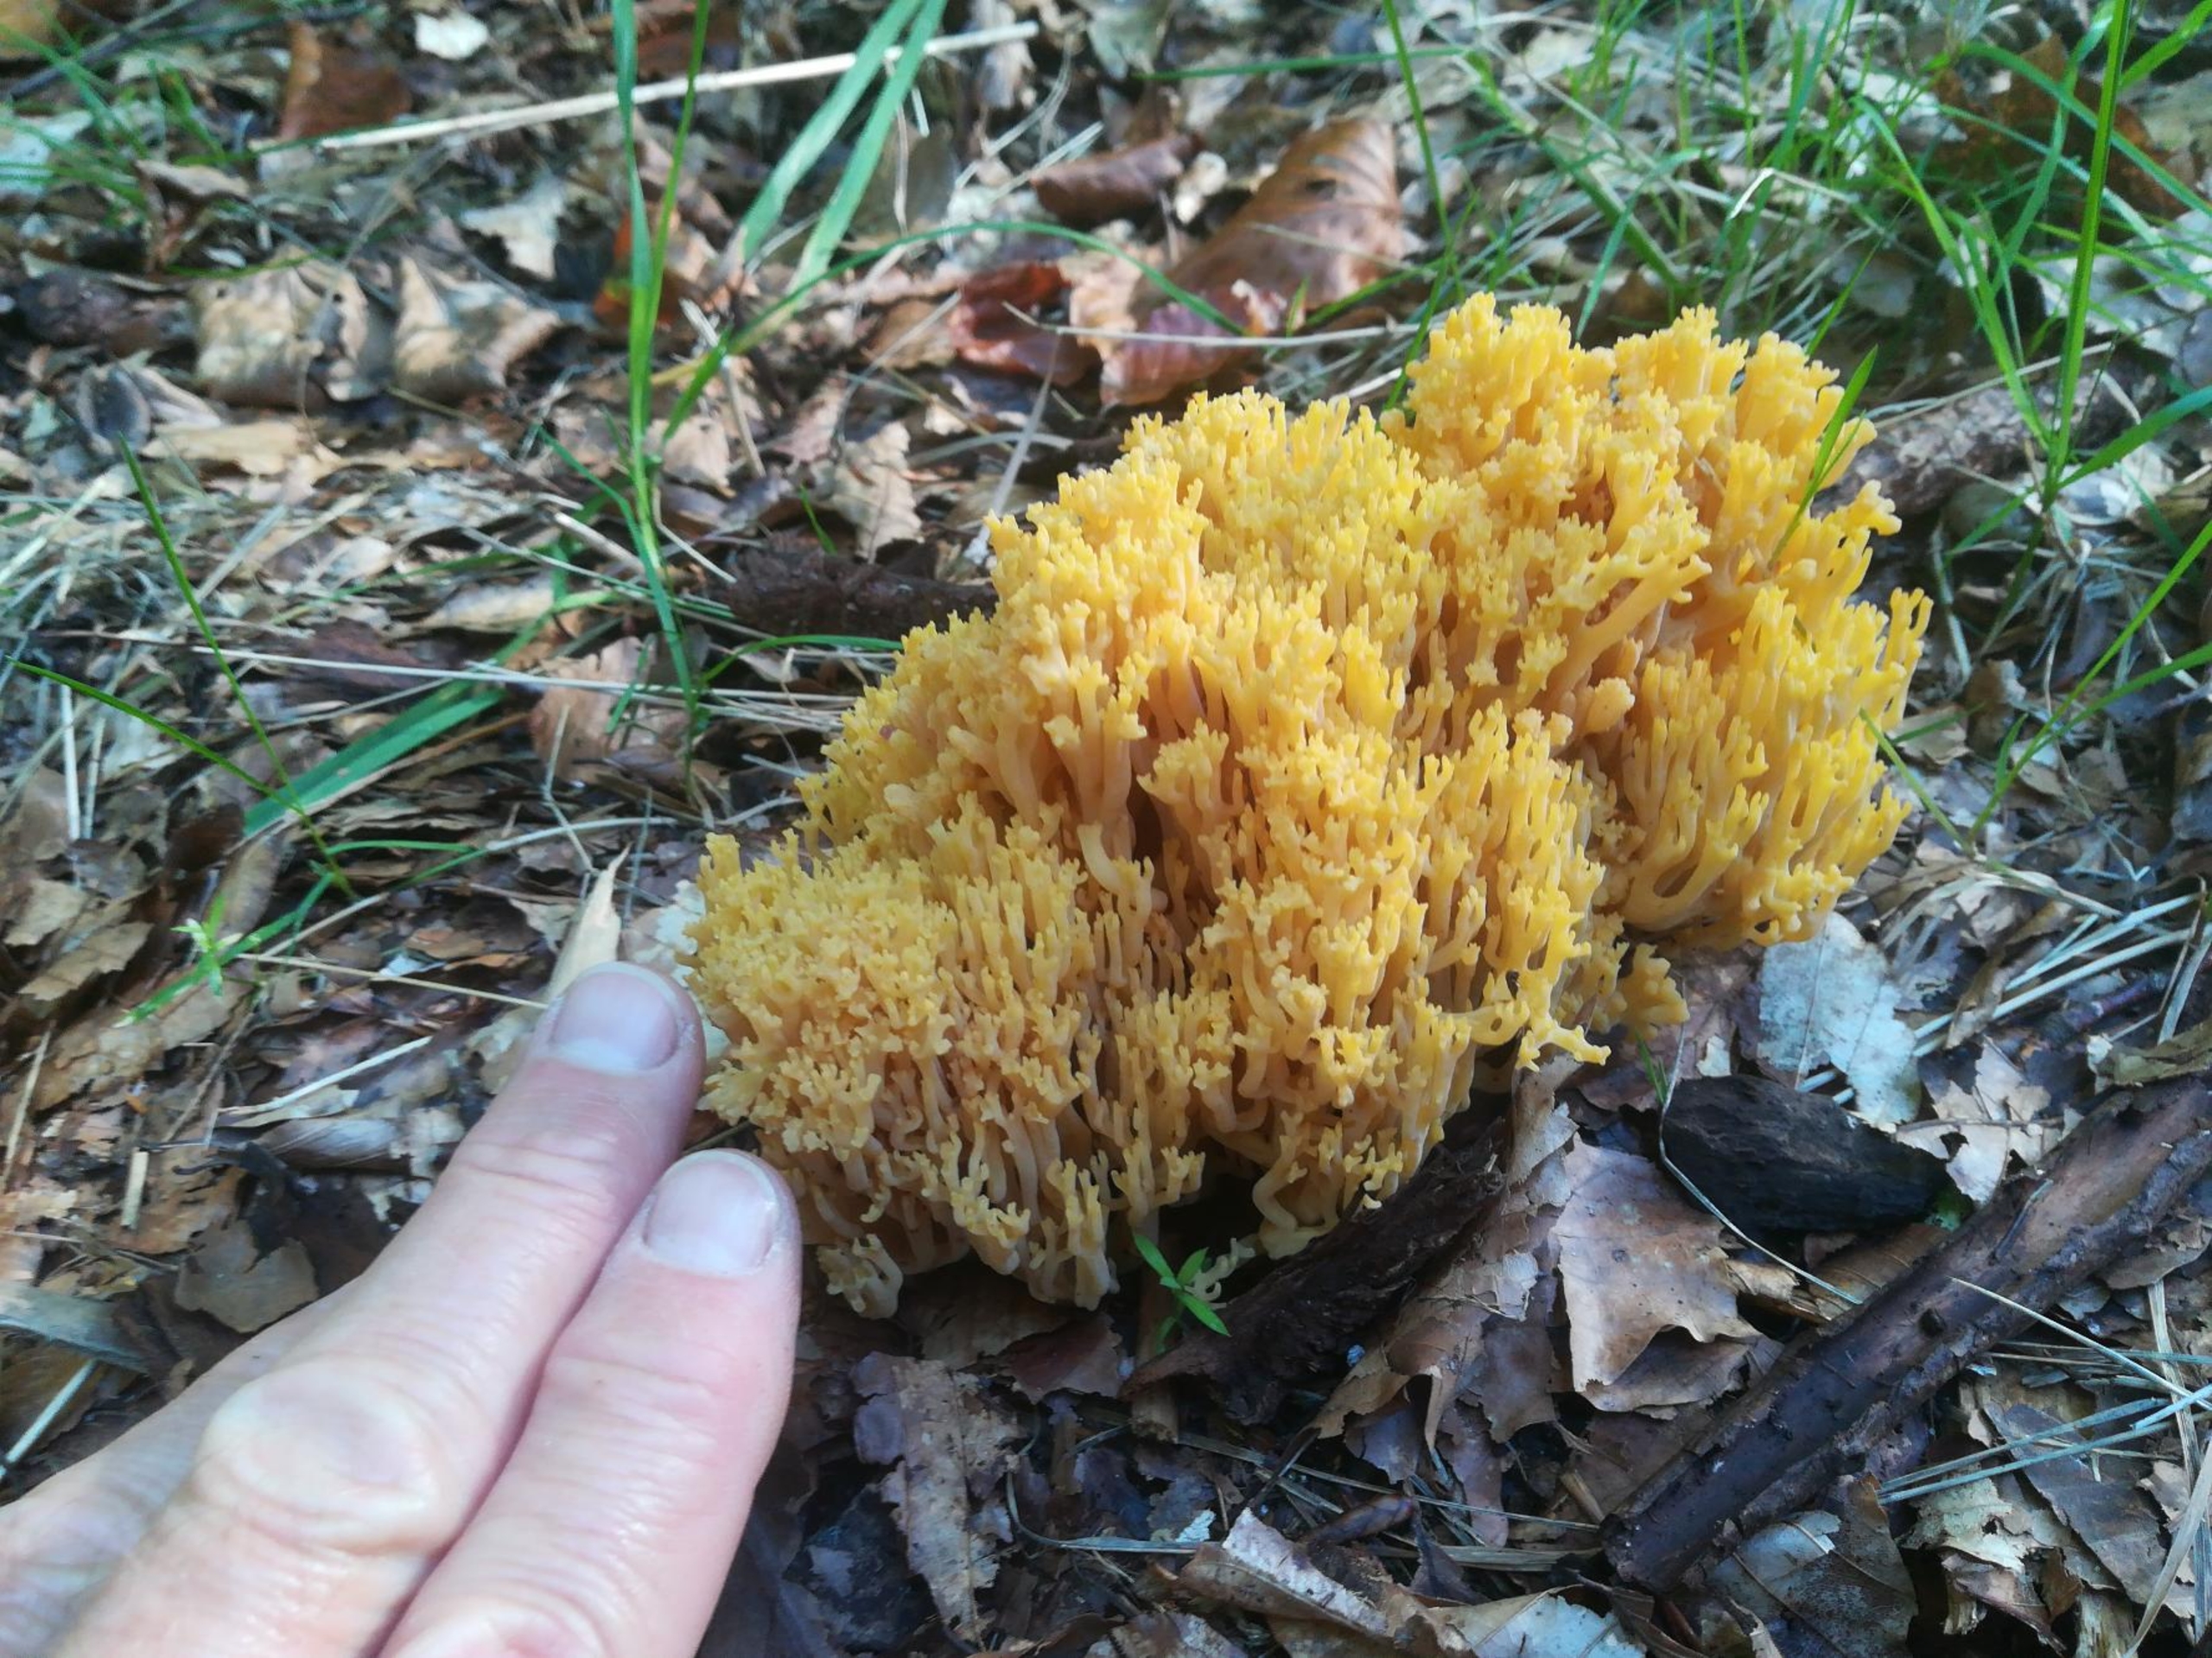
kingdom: Fungi
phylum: Basidiomycota
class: Agaricomycetes
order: Gomphales
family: Gomphaceae
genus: Ramaria
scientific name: Ramaria
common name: Koralsvamp
